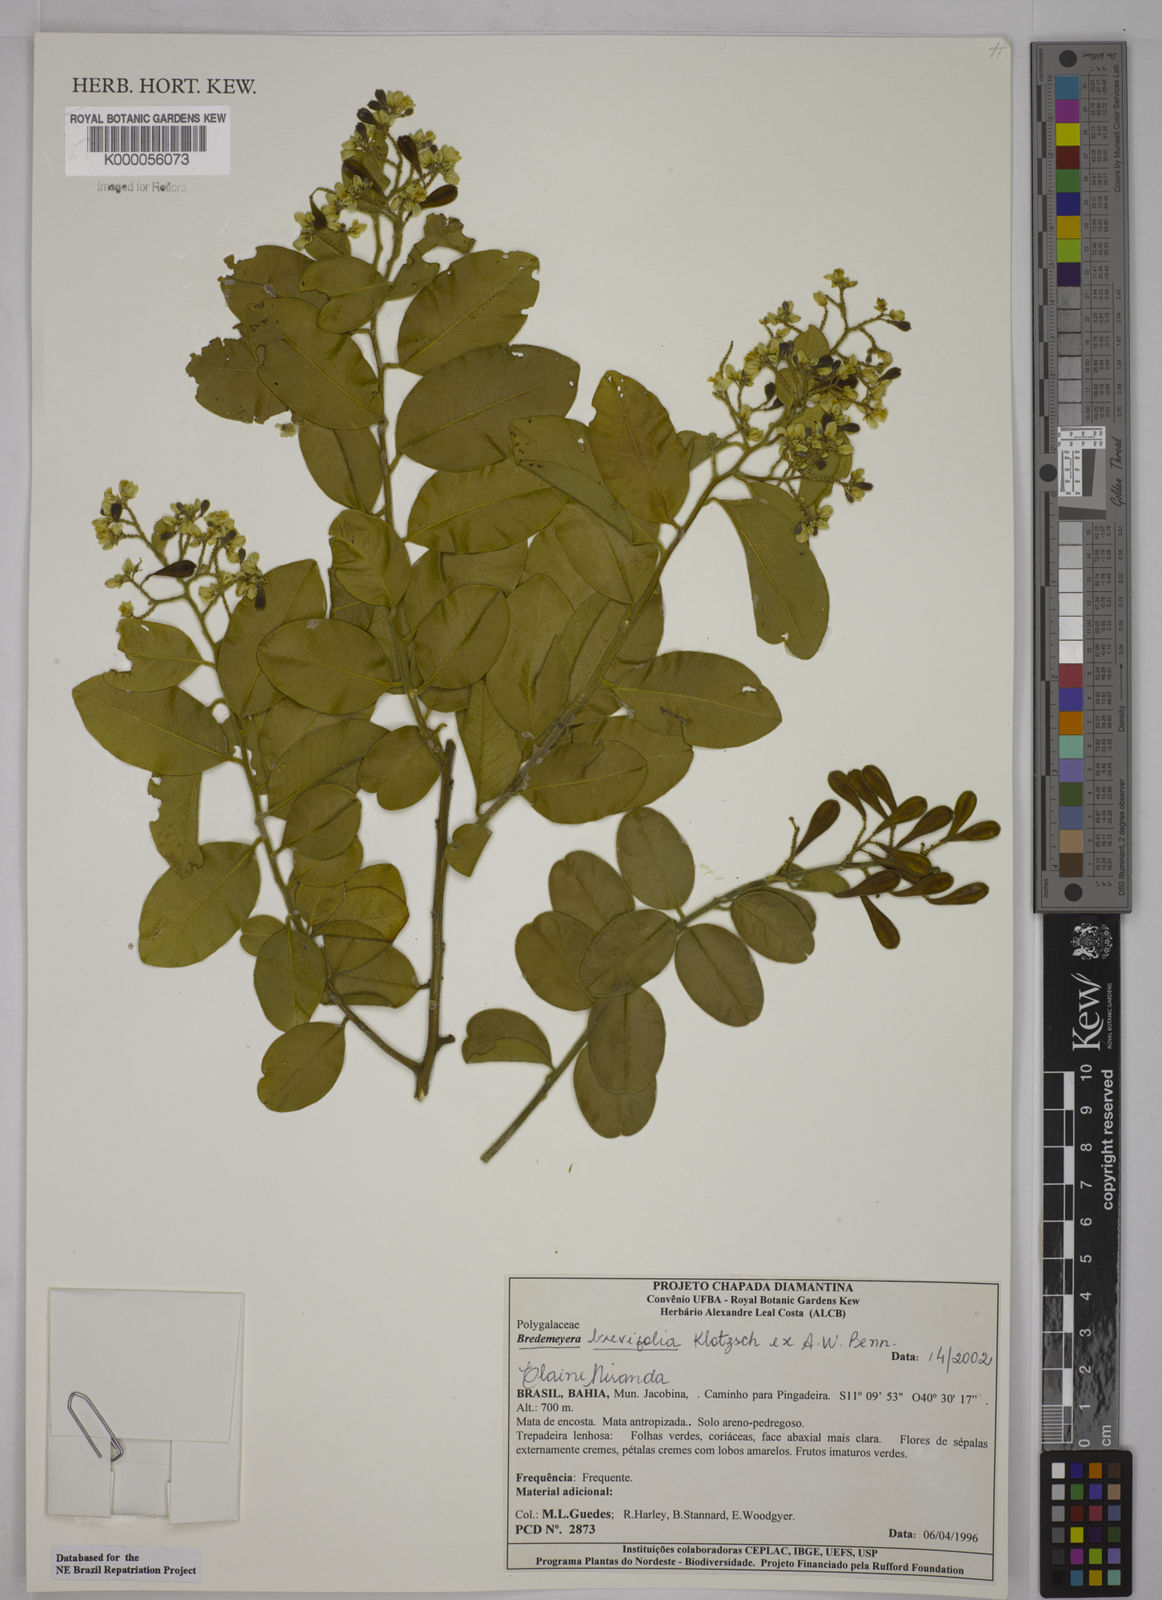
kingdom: Plantae
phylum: Tracheophyta
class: Magnoliopsida
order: Fabales
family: Polygalaceae
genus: Bredemeyera
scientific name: Bredemeyera brevifolia
